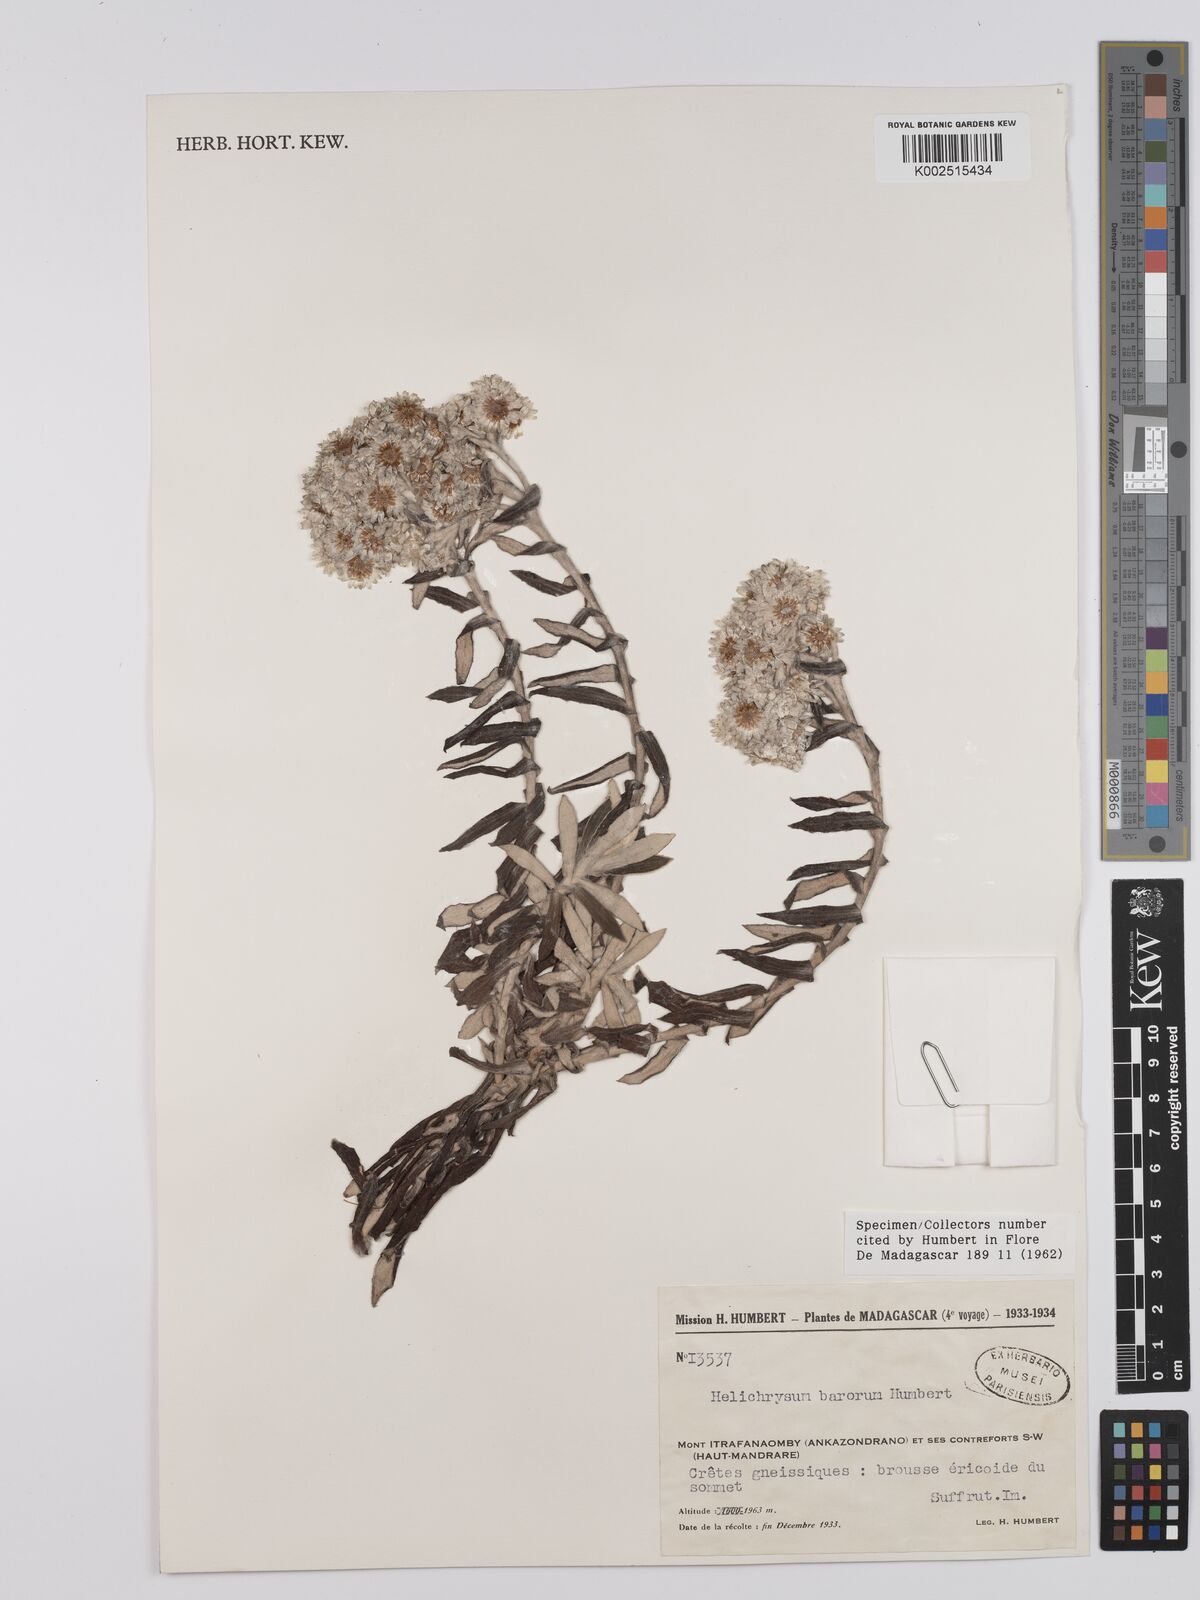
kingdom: Plantae
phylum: Tracheophyta
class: Magnoliopsida
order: Asterales
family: Asteraceae
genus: Helichrysum
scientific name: Helichrysum barorum
